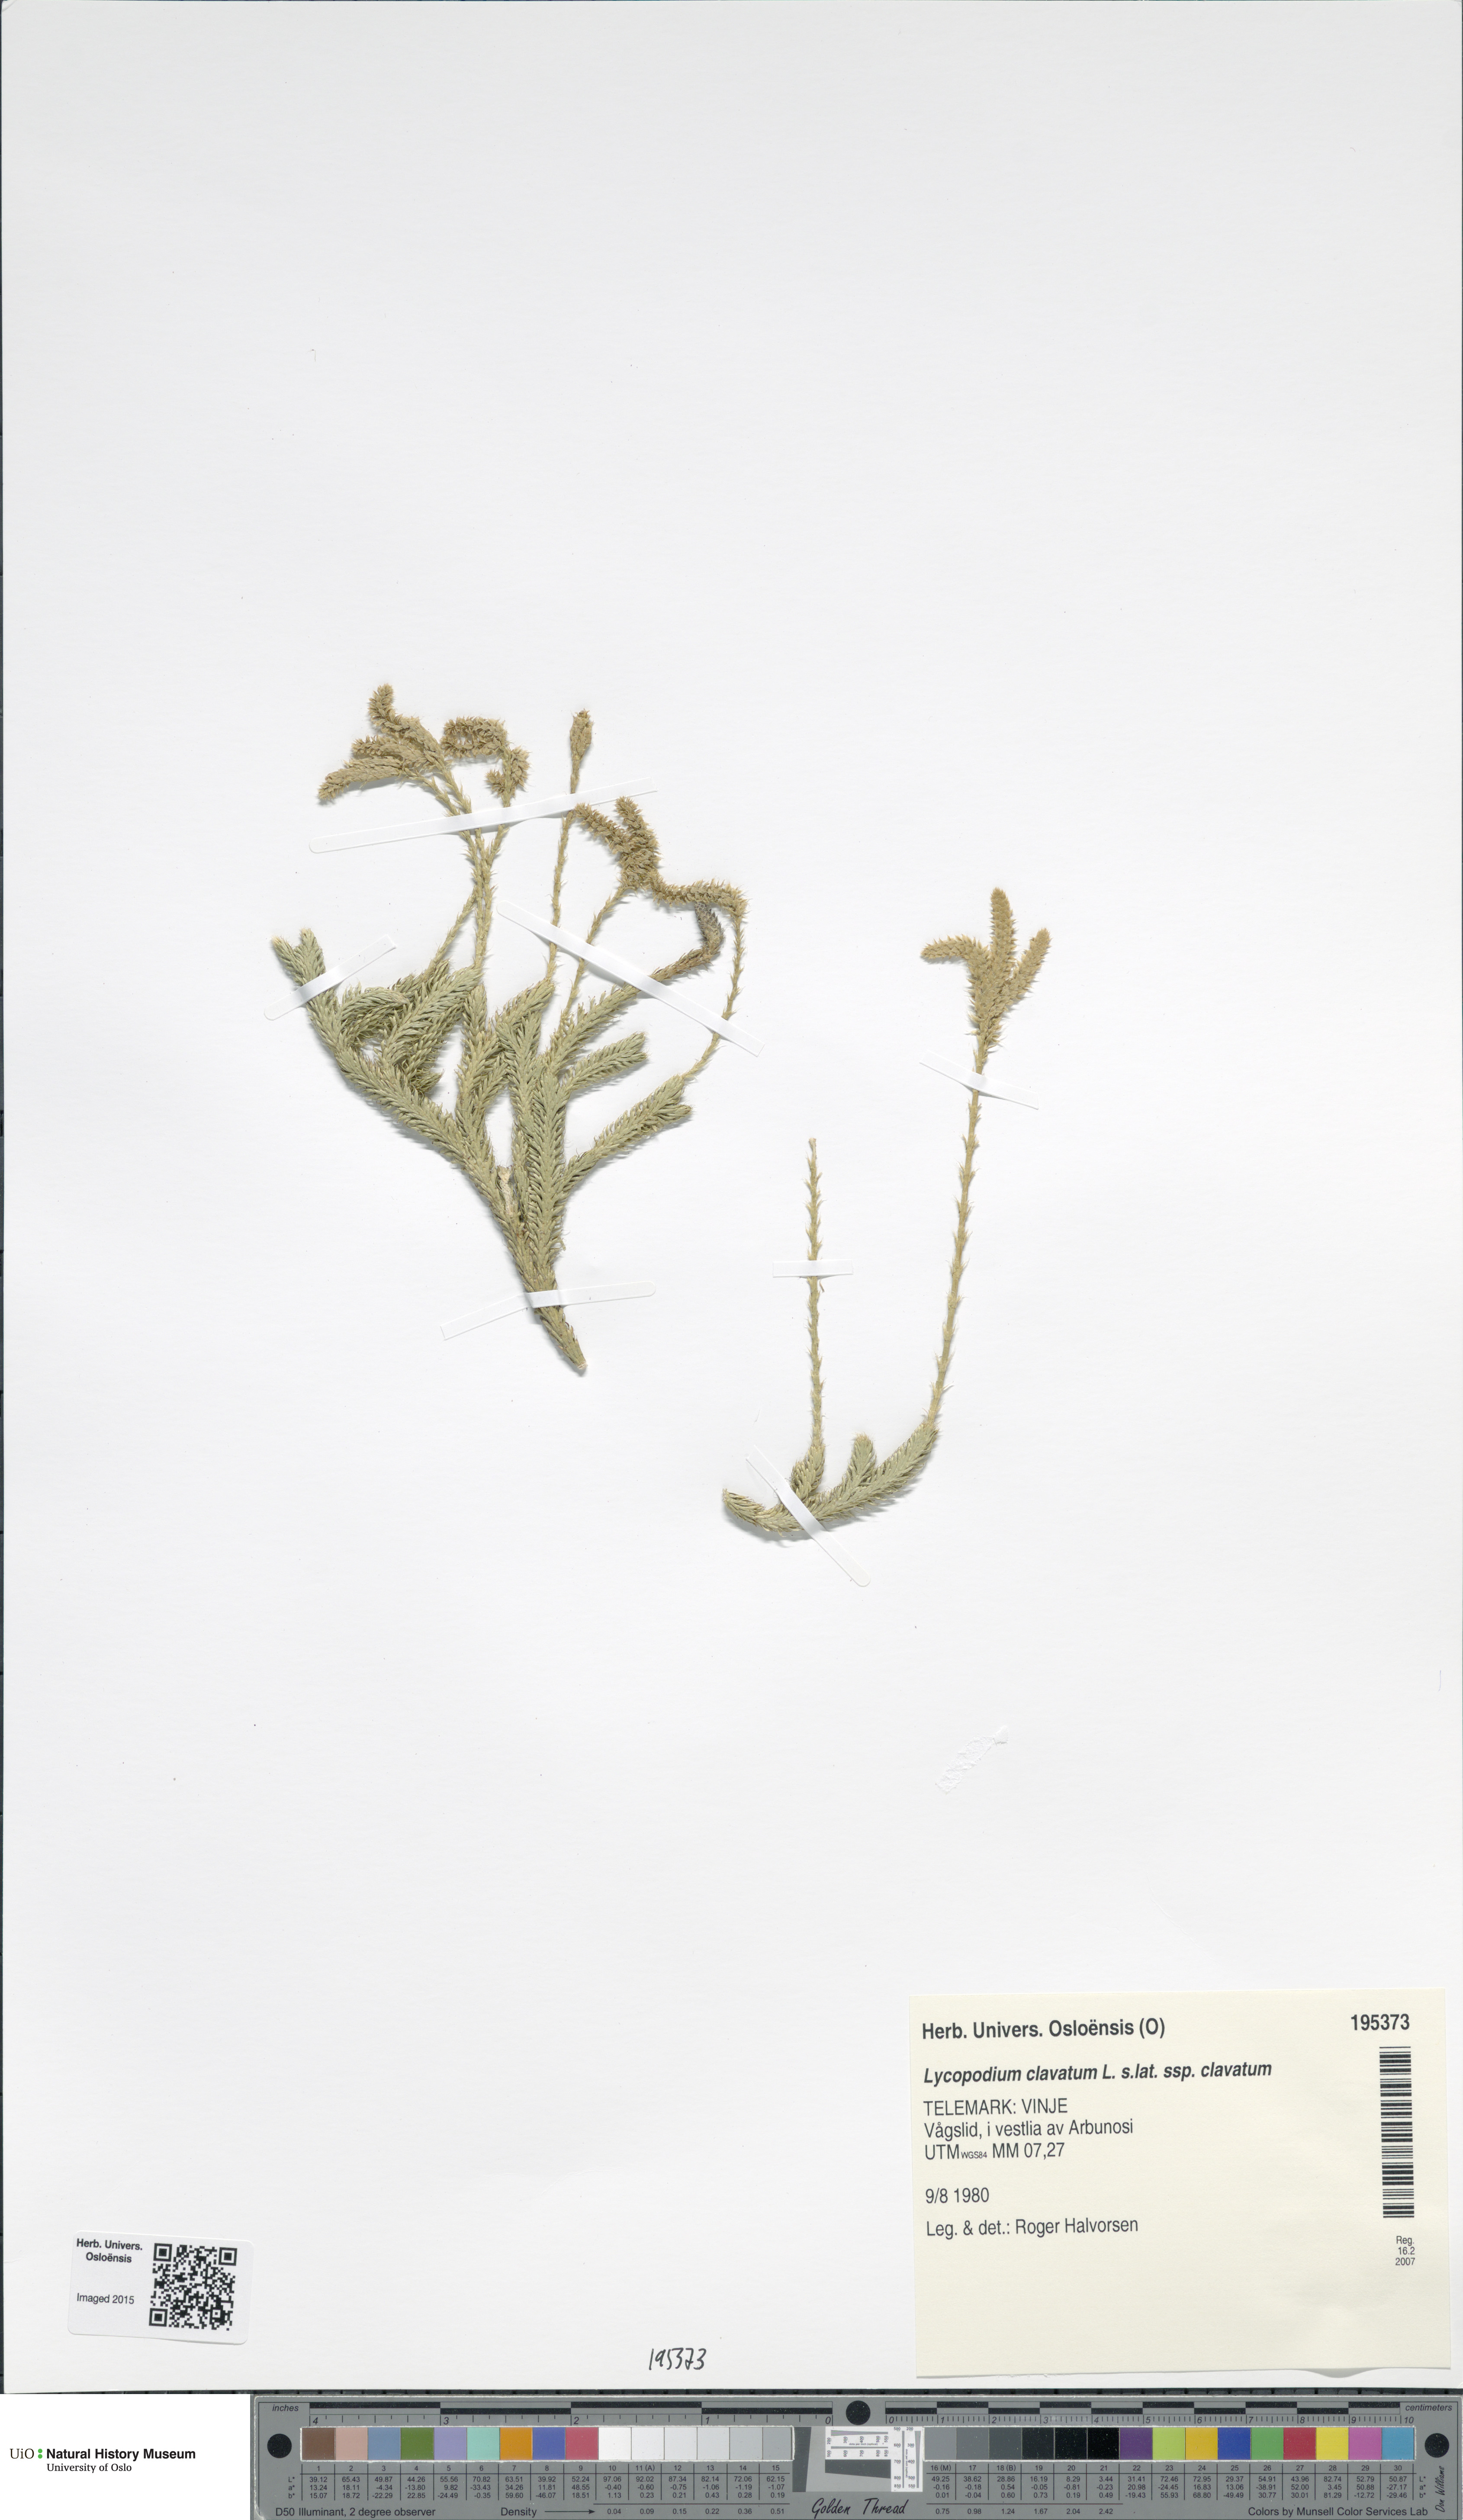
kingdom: Plantae
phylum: Tracheophyta
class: Lycopodiopsida
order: Lycopodiales
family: Lycopodiaceae
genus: Lycopodium
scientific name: Lycopodium clavatum
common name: Stag's-horn clubmoss
